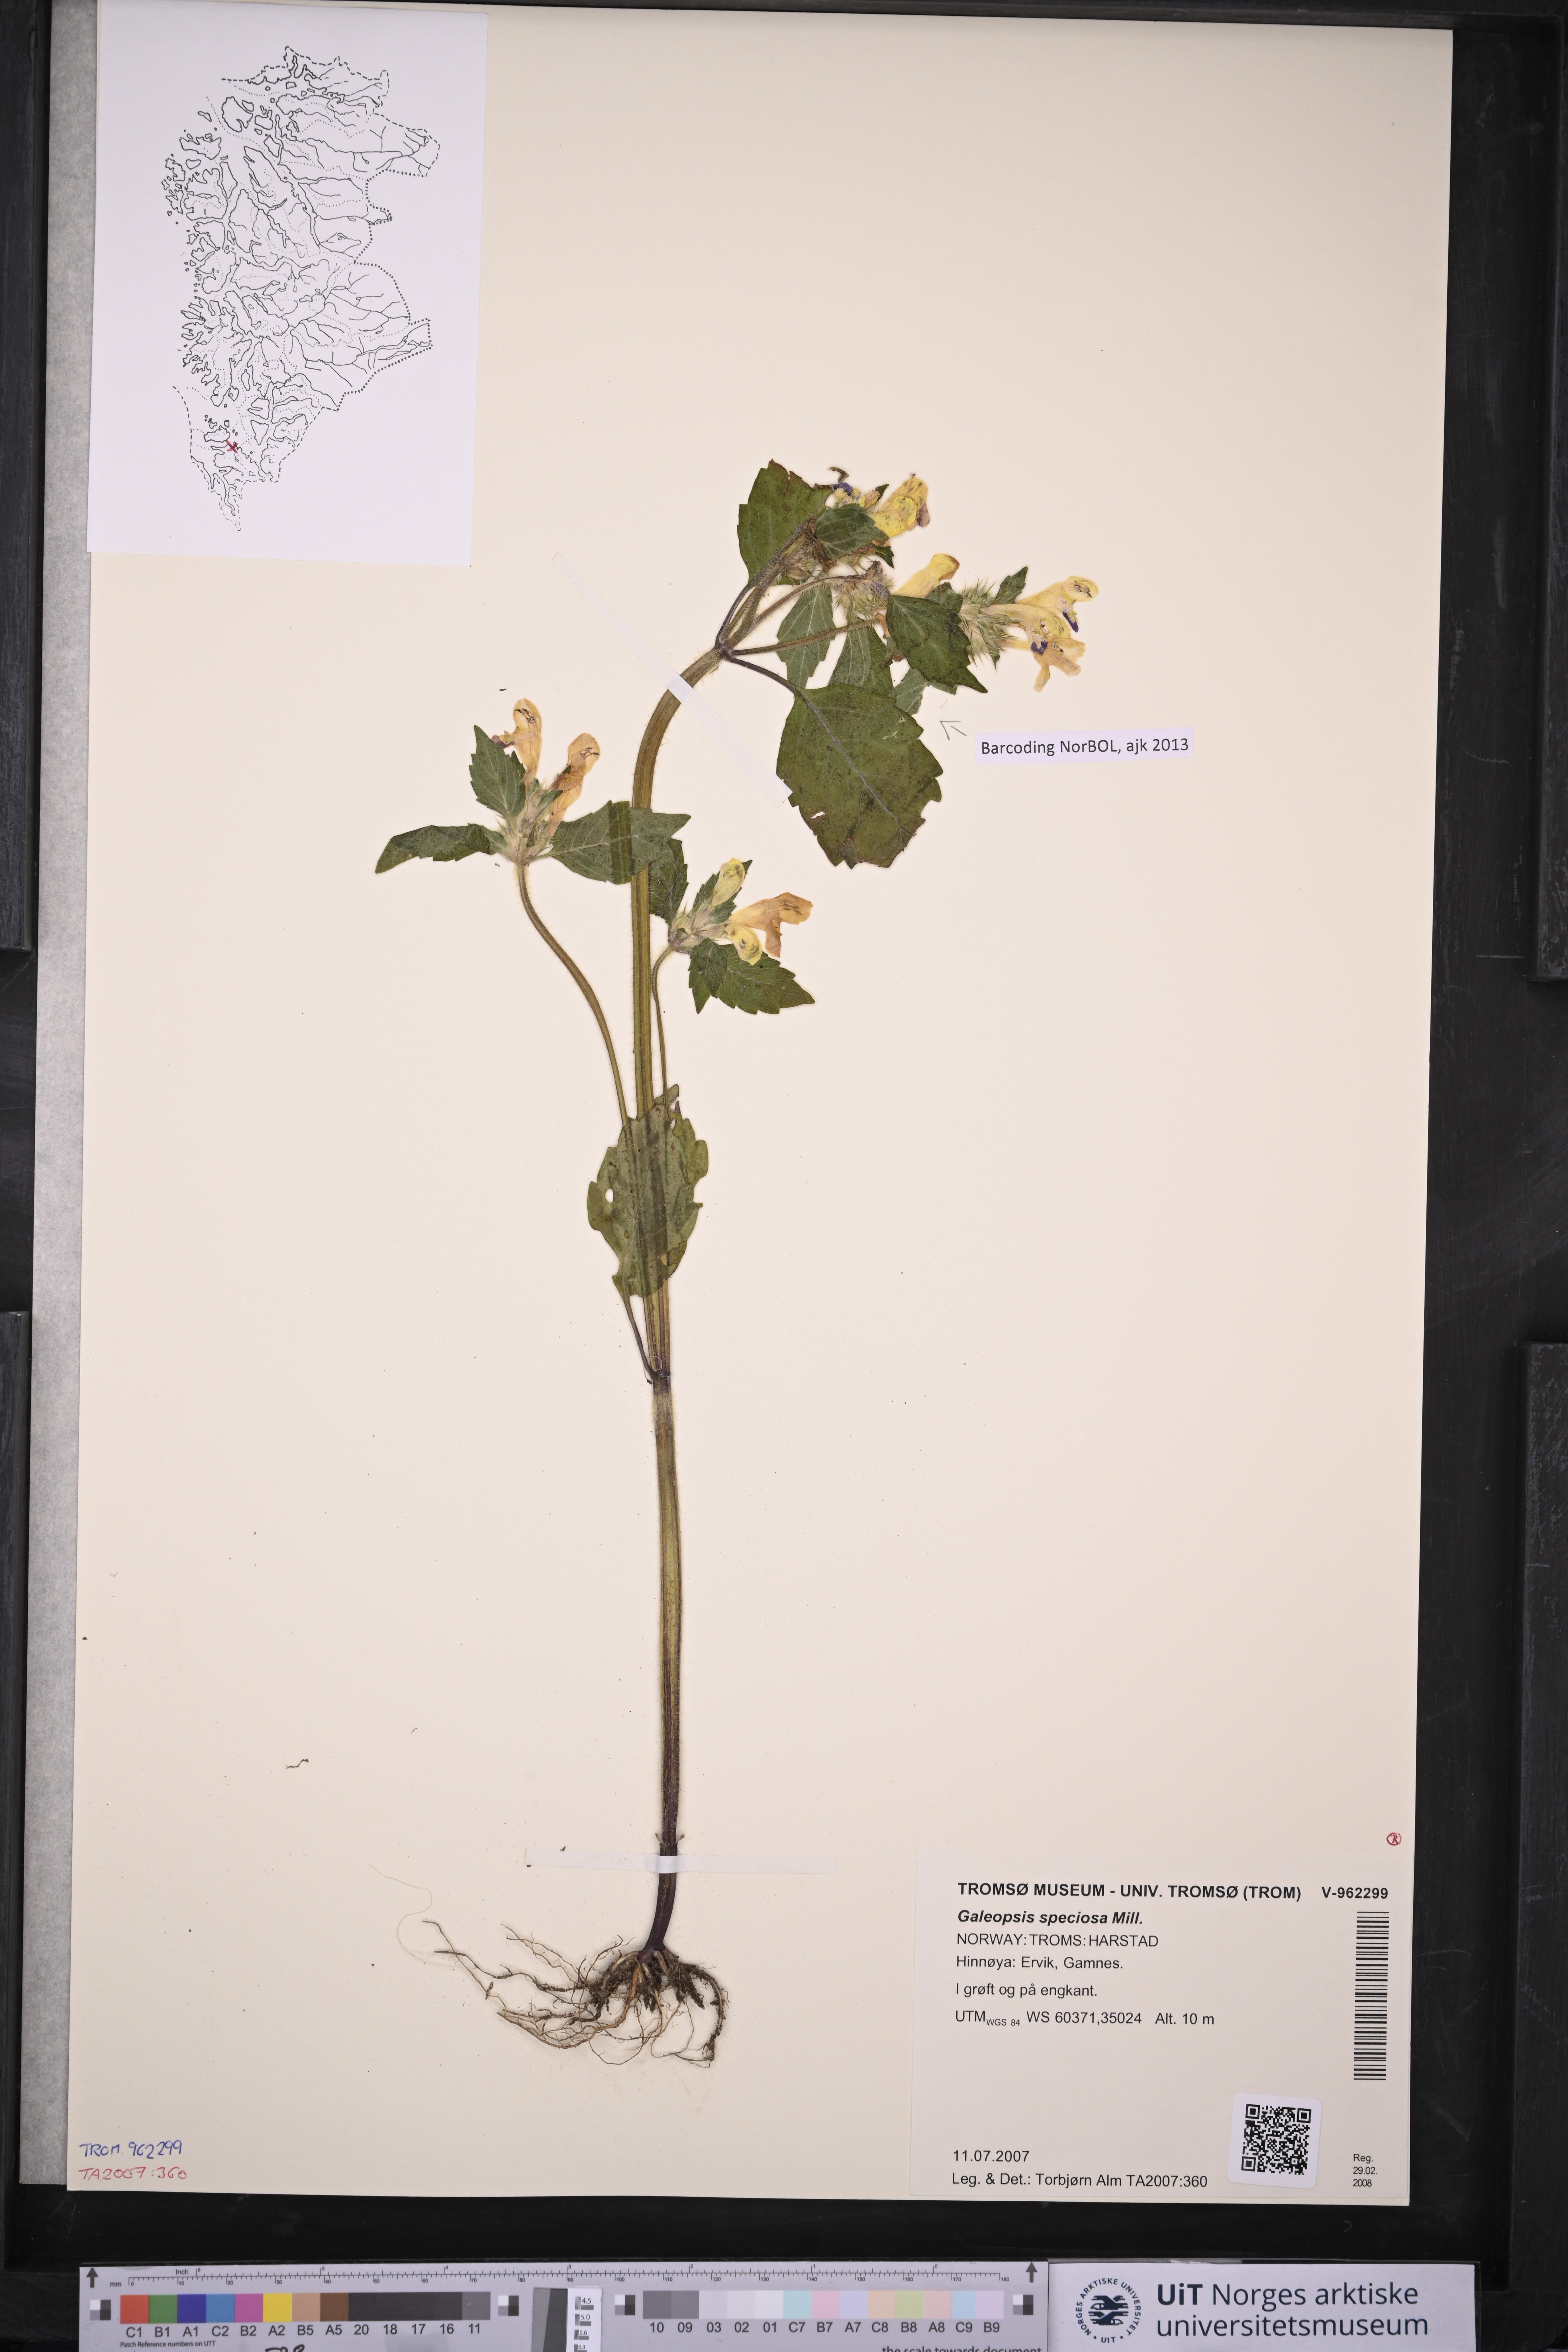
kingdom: Plantae
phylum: Tracheophyta
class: Magnoliopsida
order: Lamiales
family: Lamiaceae
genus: Galeopsis
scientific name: Galeopsis speciosa
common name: Large-flowered hemp-nettle
